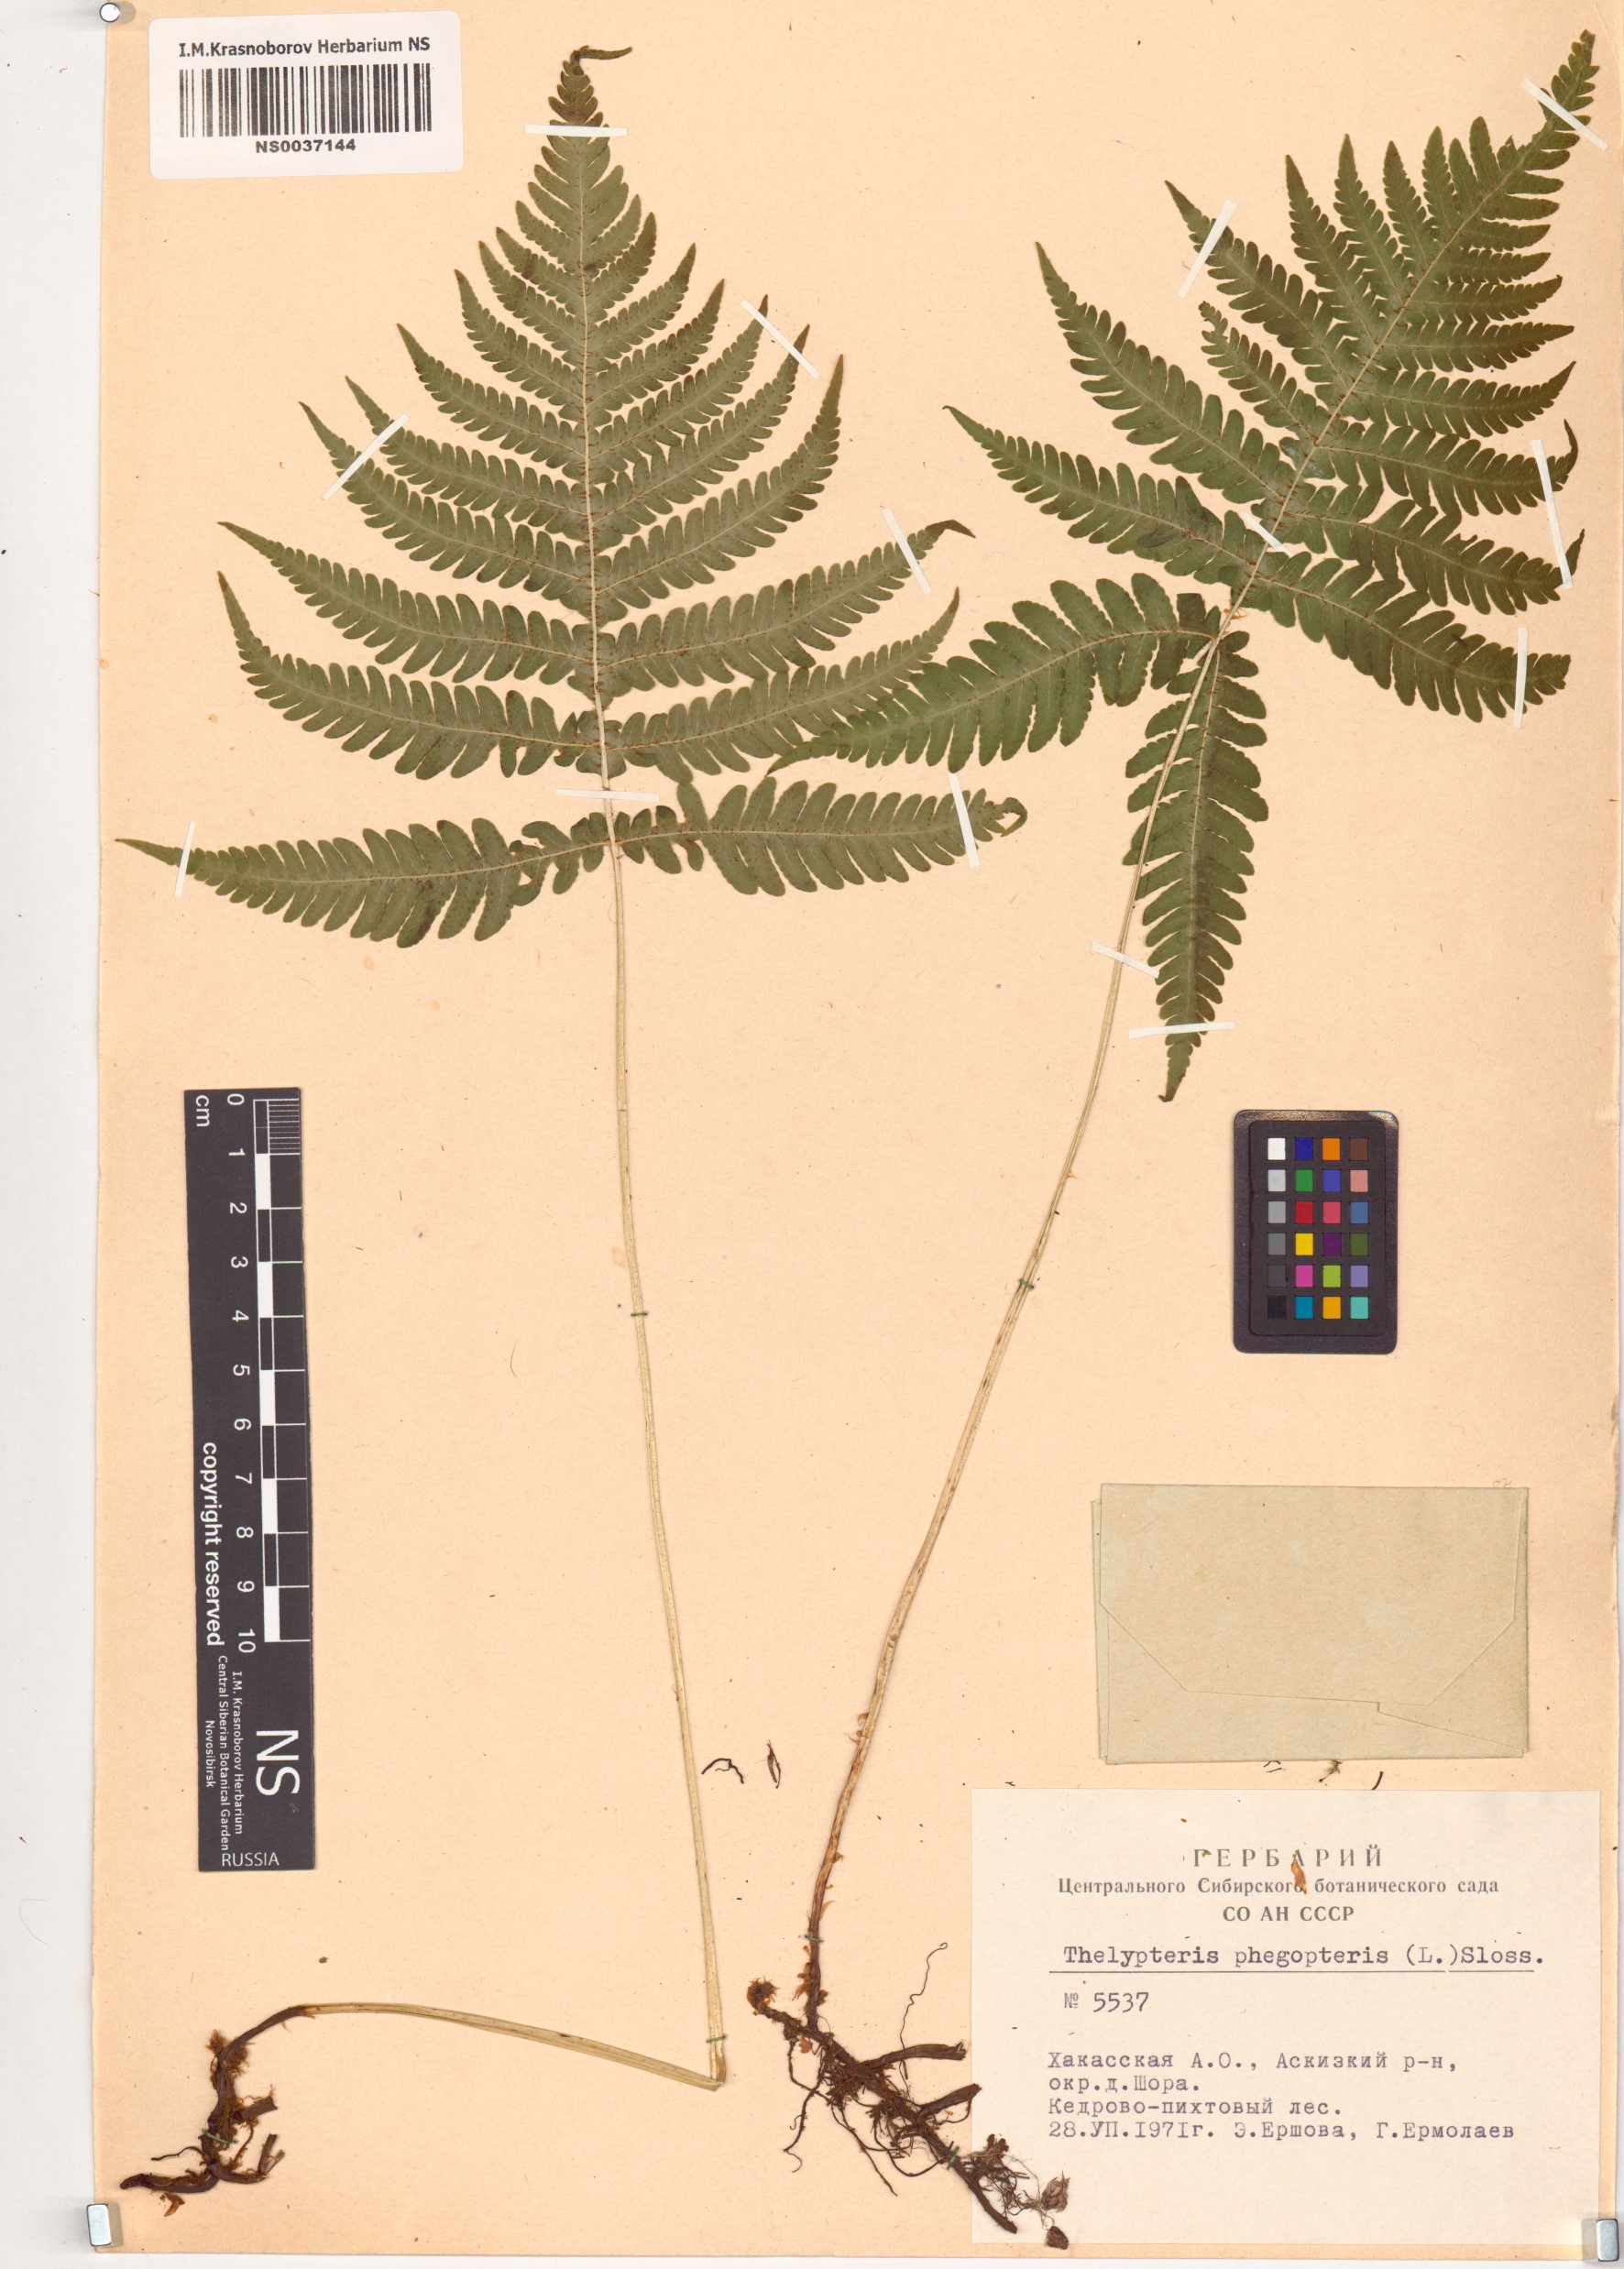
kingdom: Plantae
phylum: Tracheophyta
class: Polypodiopsida
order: Polypodiales
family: Thelypteridaceae
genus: Phegopteris
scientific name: Phegopteris connectilis
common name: Beech fern
